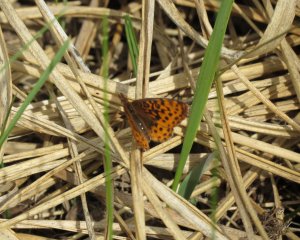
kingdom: Animalia
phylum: Arthropoda
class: Insecta
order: Lepidoptera
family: Nymphalidae
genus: Clossiana
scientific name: Clossiana toddi
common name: Meadow Fritillary
